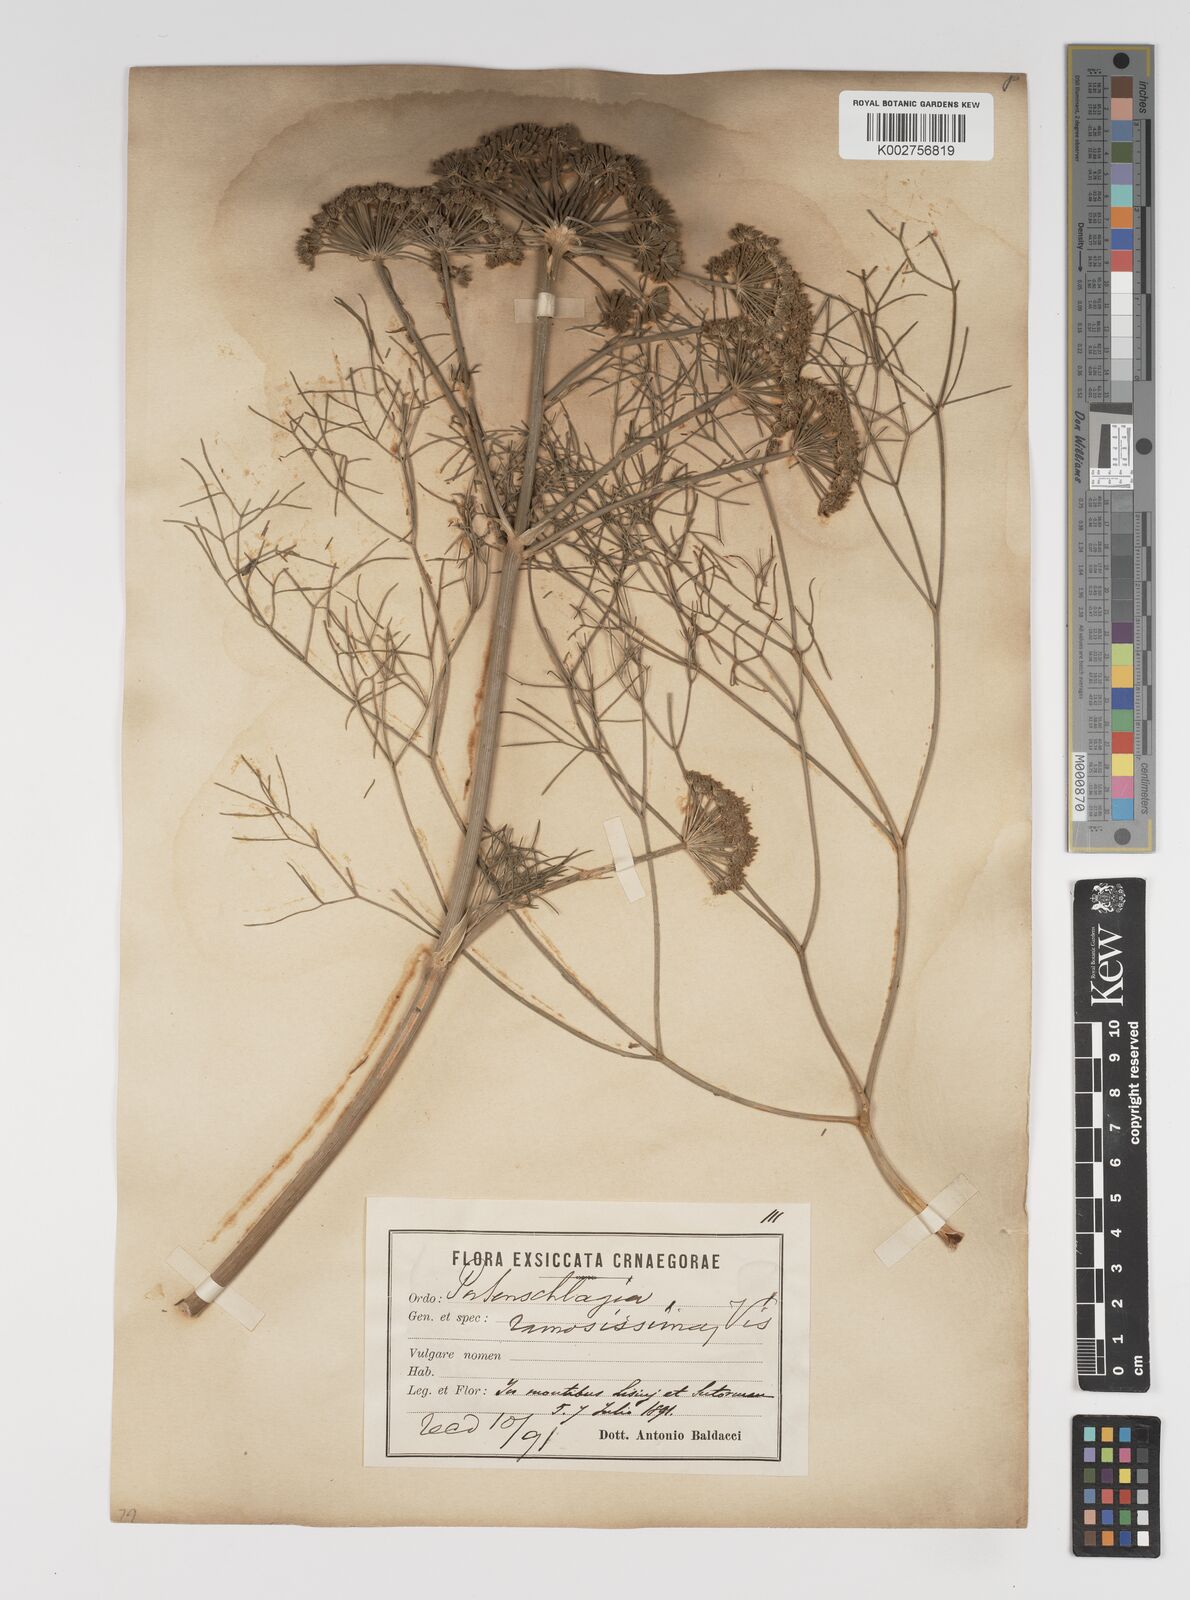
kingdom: Plantae
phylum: Tracheophyta
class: Magnoliopsida
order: Apiales
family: Apiaceae
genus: Athamanta
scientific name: Athamanta ramosissima
